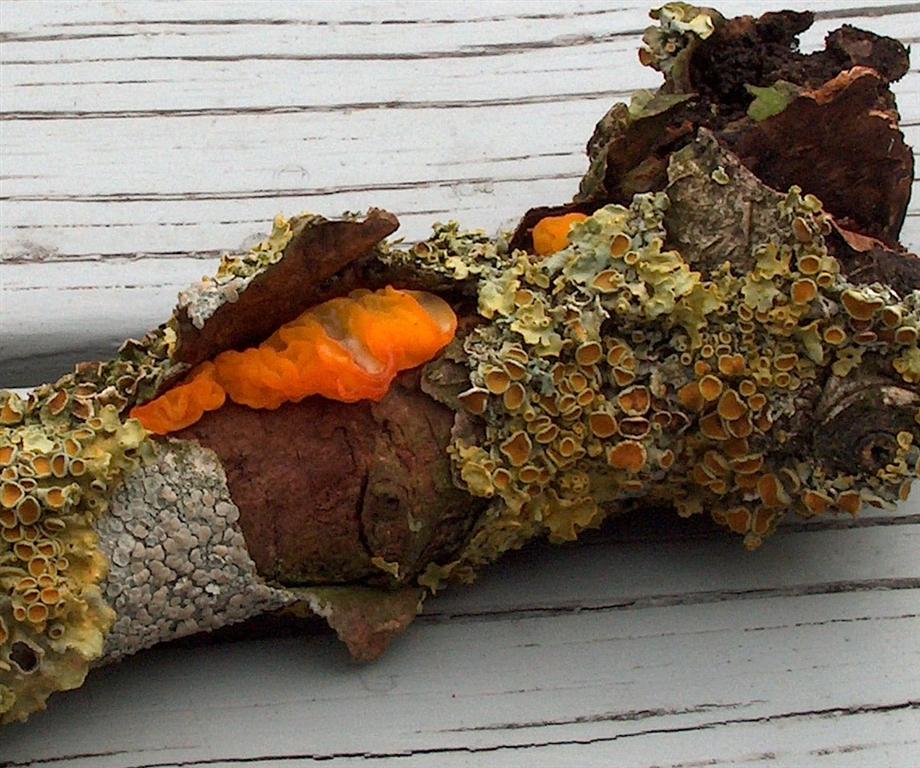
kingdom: Fungi
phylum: Basidiomycota
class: Tremellomycetes
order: Tremellales
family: Tremellaceae
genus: Tremella
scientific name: Tremella mesenterica
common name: gul bævresvamp
